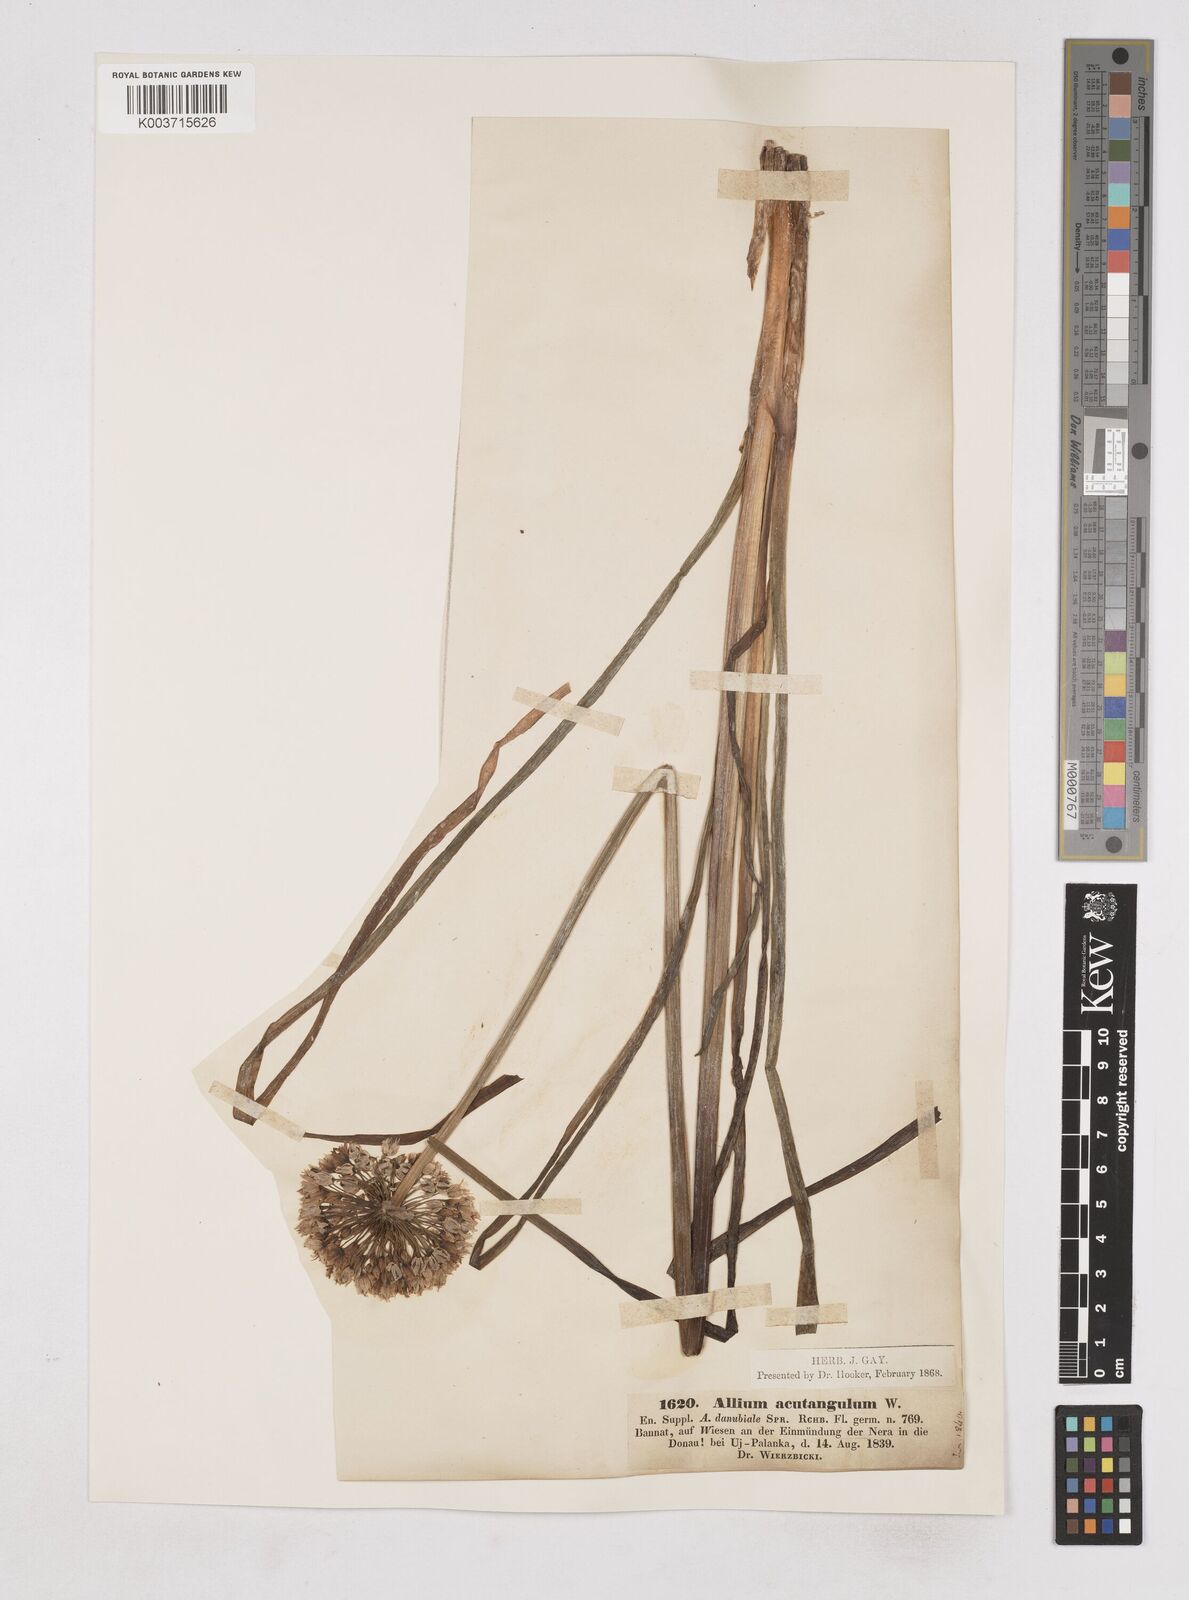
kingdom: Plantae
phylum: Tracheophyta
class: Liliopsida
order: Asparagales
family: Amaryllidaceae
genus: Allium
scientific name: Allium angulosum
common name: Mouse garlic
